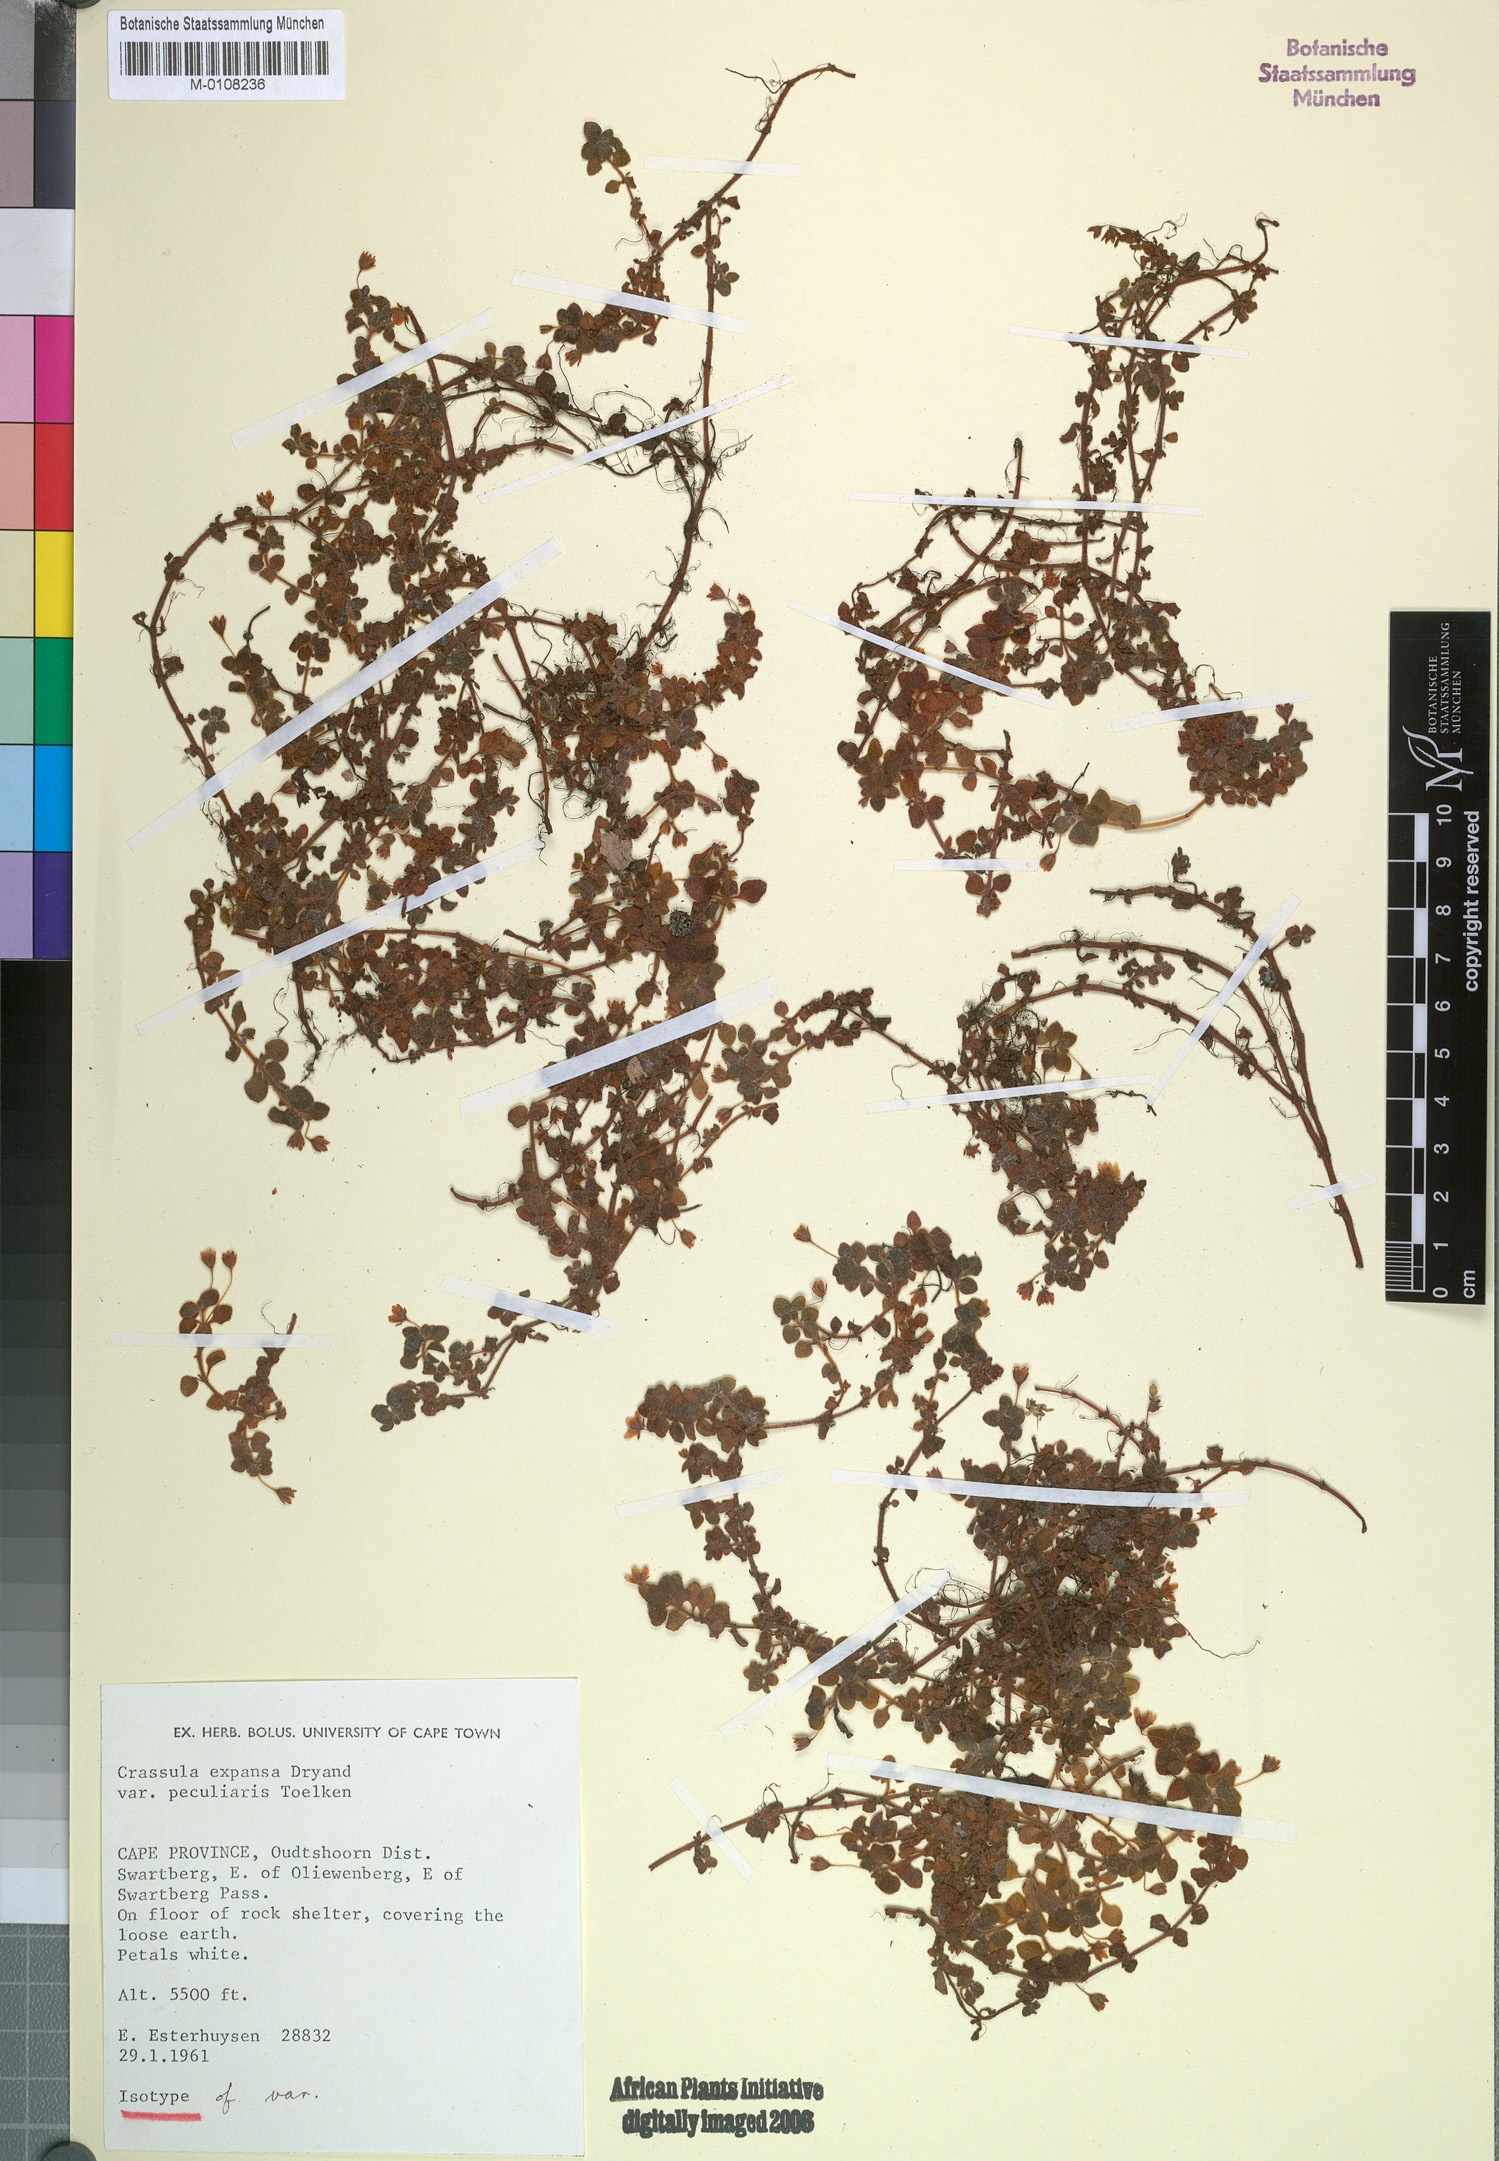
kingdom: Plantae
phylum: Tracheophyta
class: Magnoliopsida
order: Saxifragales
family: Crassulaceae
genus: Crassula
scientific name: Crassula peculiaris
